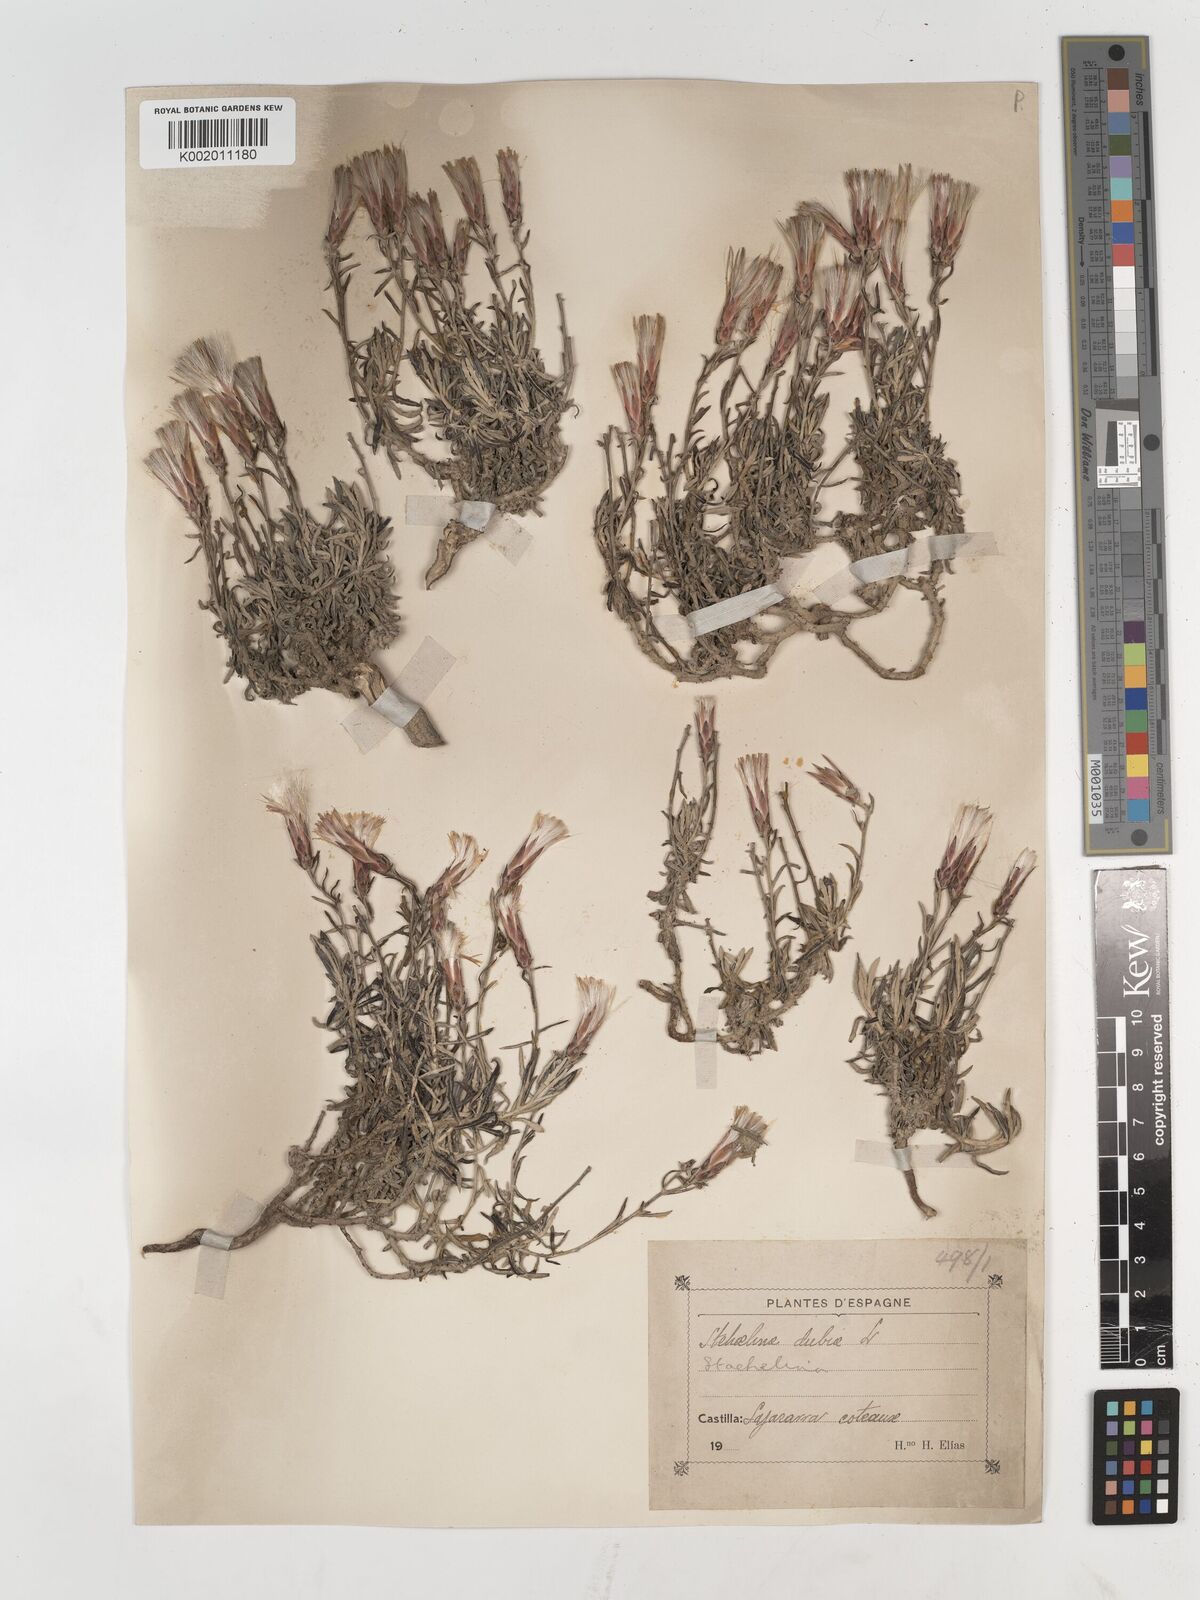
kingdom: Plantae
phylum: Tracheophyta
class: Magnoliopsida
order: Asterales
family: Asteraceae
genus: Staehelina
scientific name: Staehelina dubia
